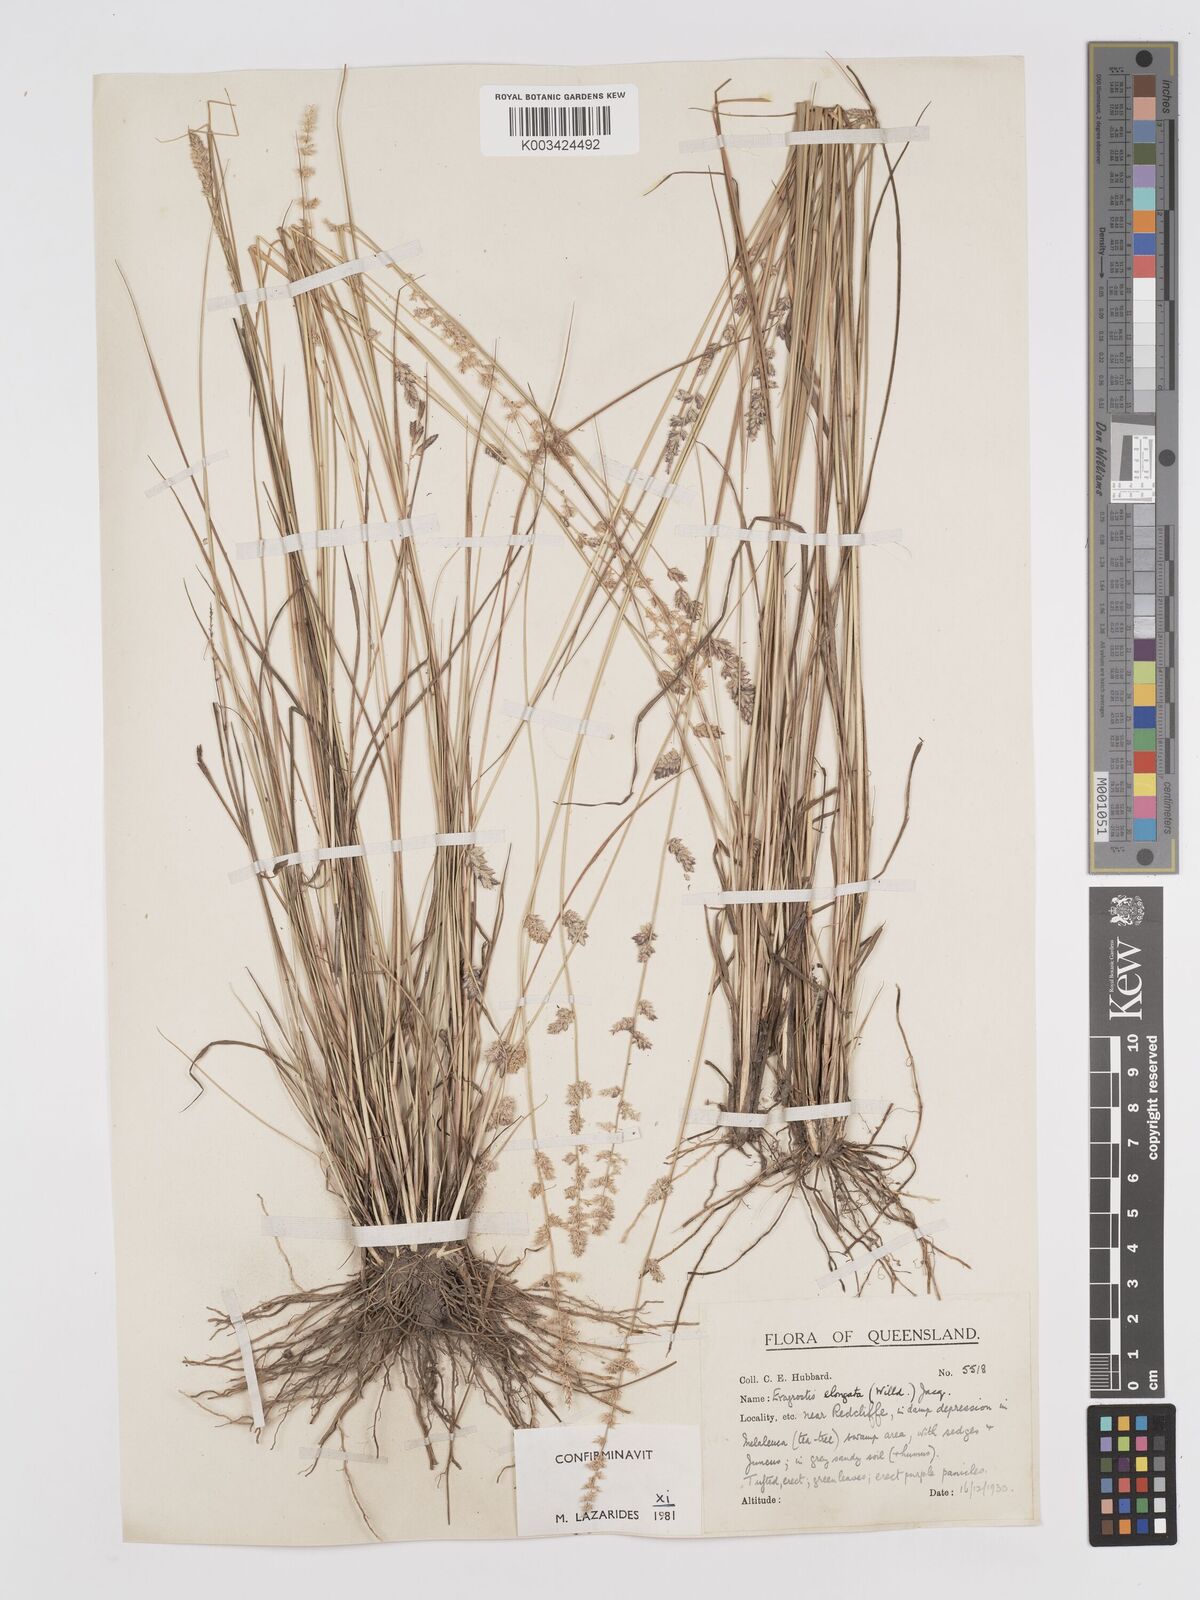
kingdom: Plantae
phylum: Tracheophyta
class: Liliopsida
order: Poales
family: Poaceae
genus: Eragrostis
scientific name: Eragrostis elongata
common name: Long lovegrass
